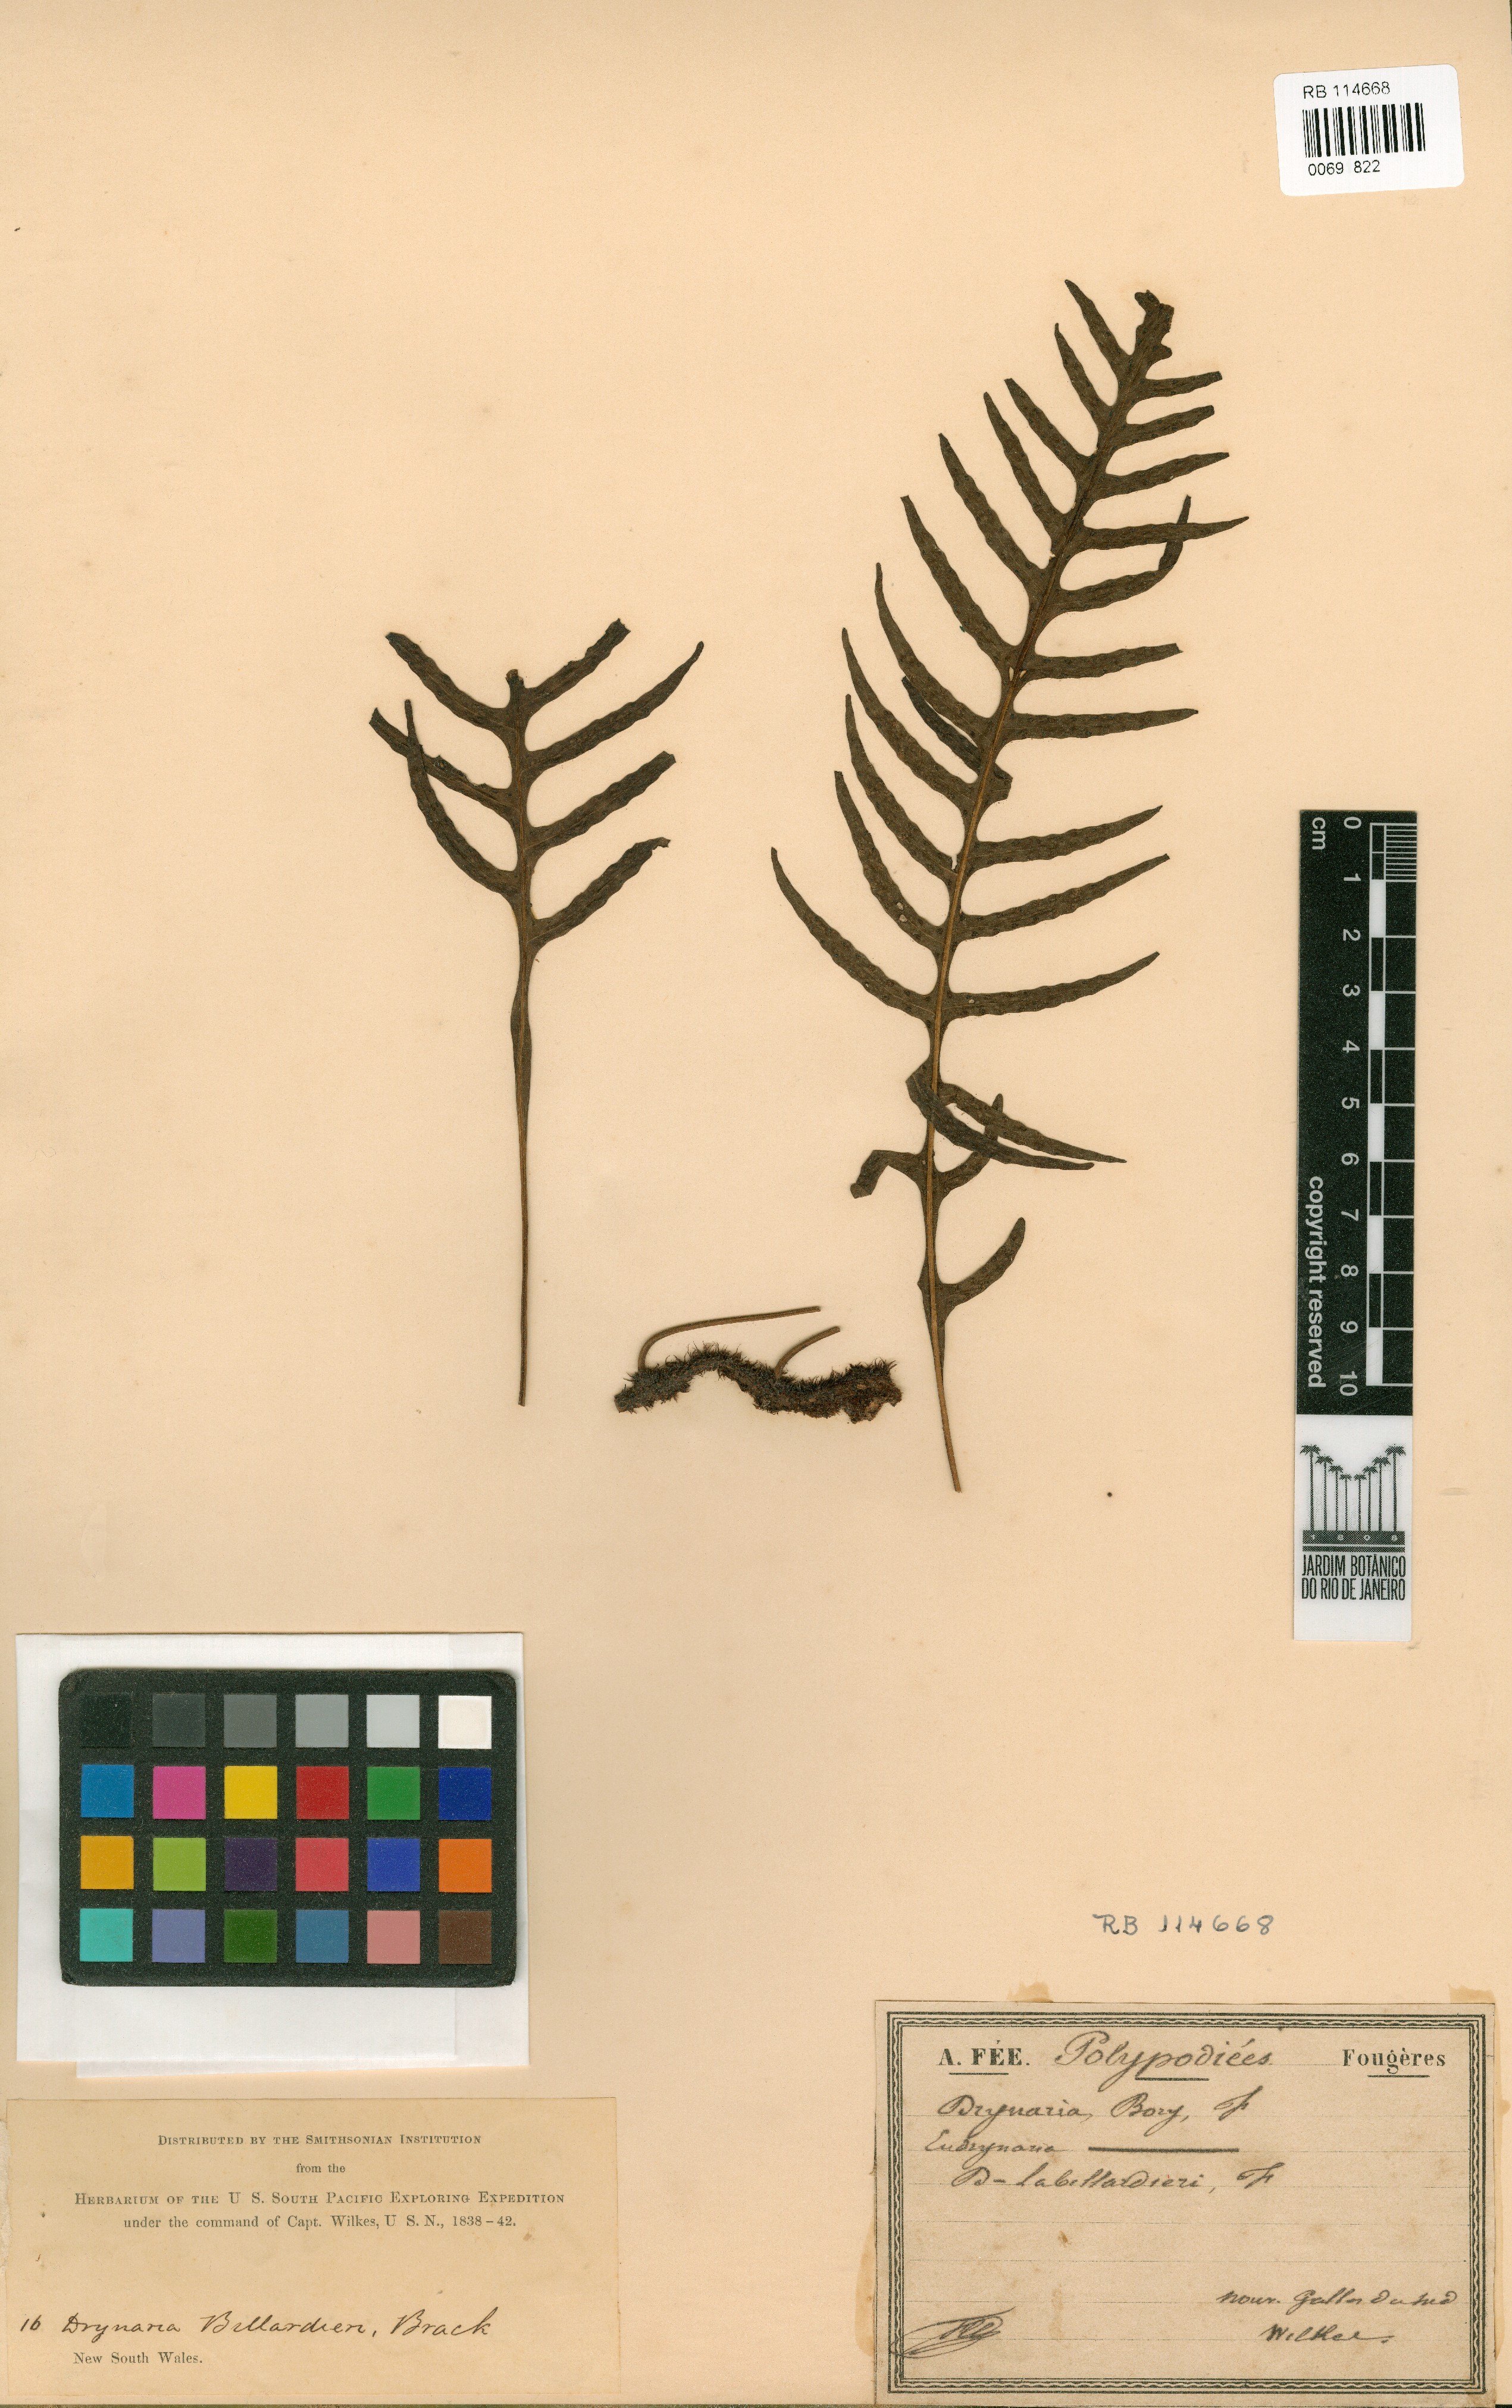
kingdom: Plantae
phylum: Tracheophyta
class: Polypodiopsida
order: Polypodiales
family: Polypodiaceae
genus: Lecanopteris
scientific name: Lecanopteris pustulata
